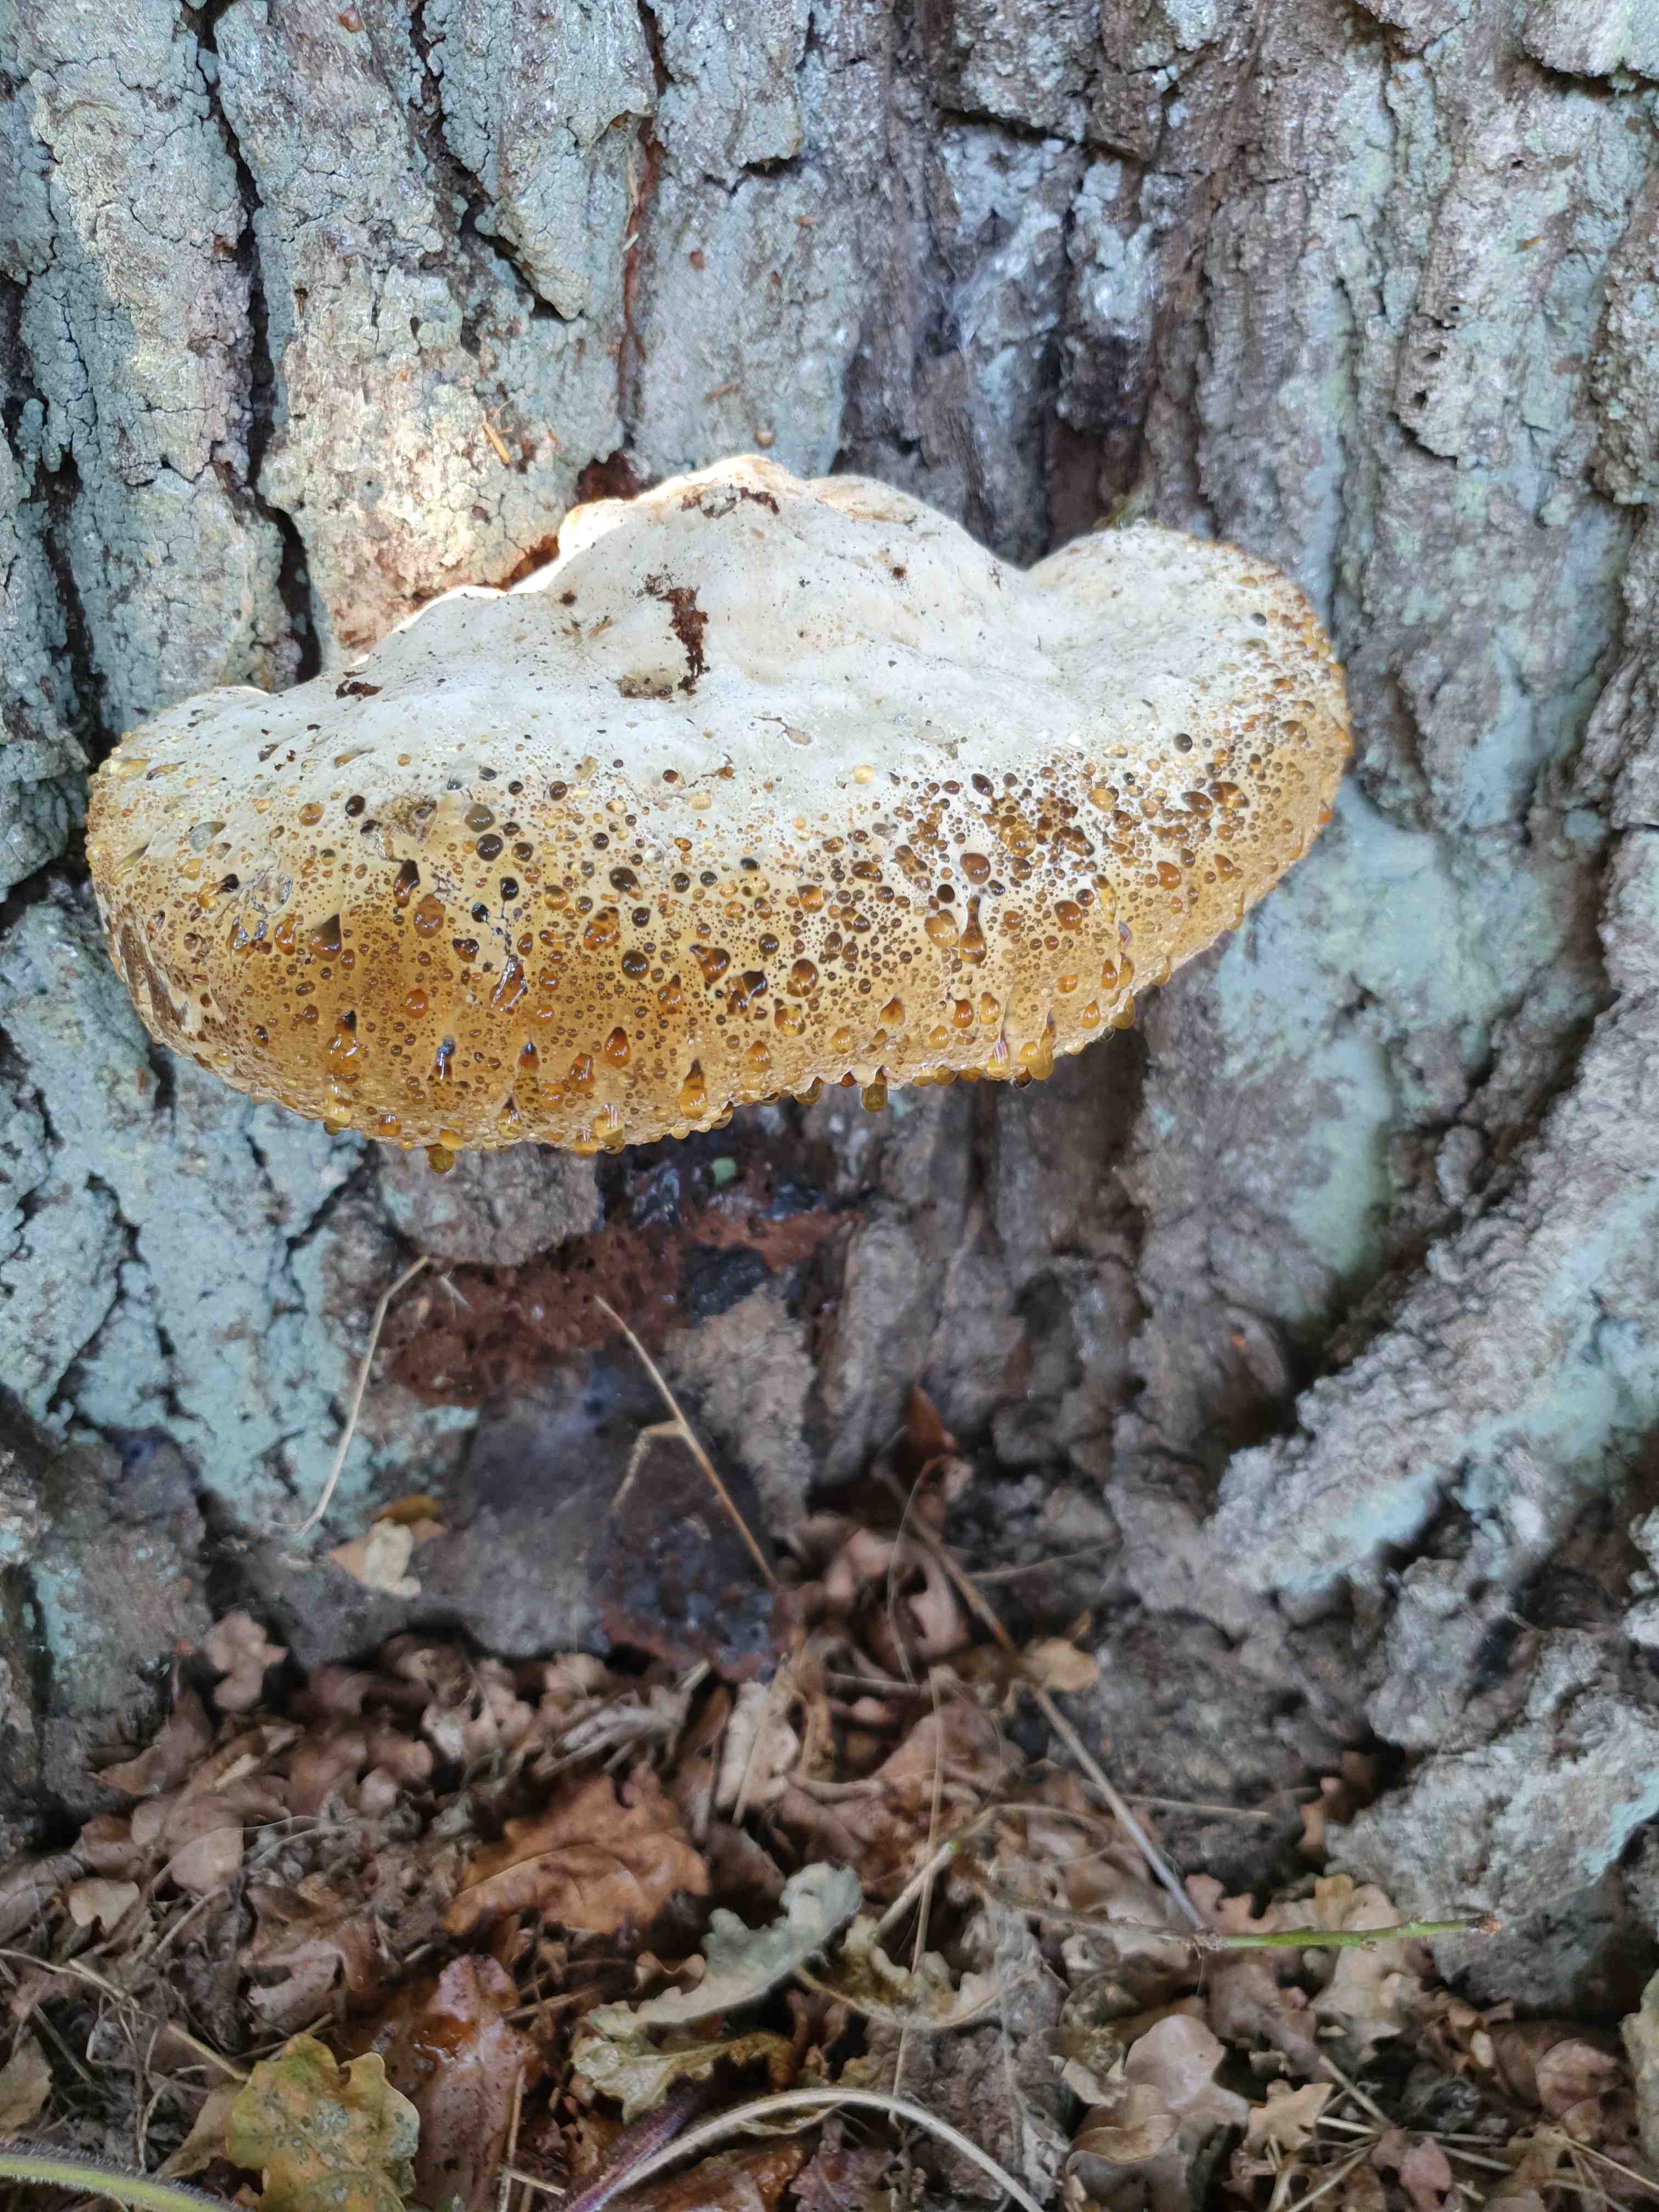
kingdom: Fungi
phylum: Basidiomycota
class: Agaricomycetes
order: Hymenochaetales
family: Hymenochaetaceae
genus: Pseudoinonotus
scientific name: Pseudoinonotus dryadeus
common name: ege-spejlporesvamp
